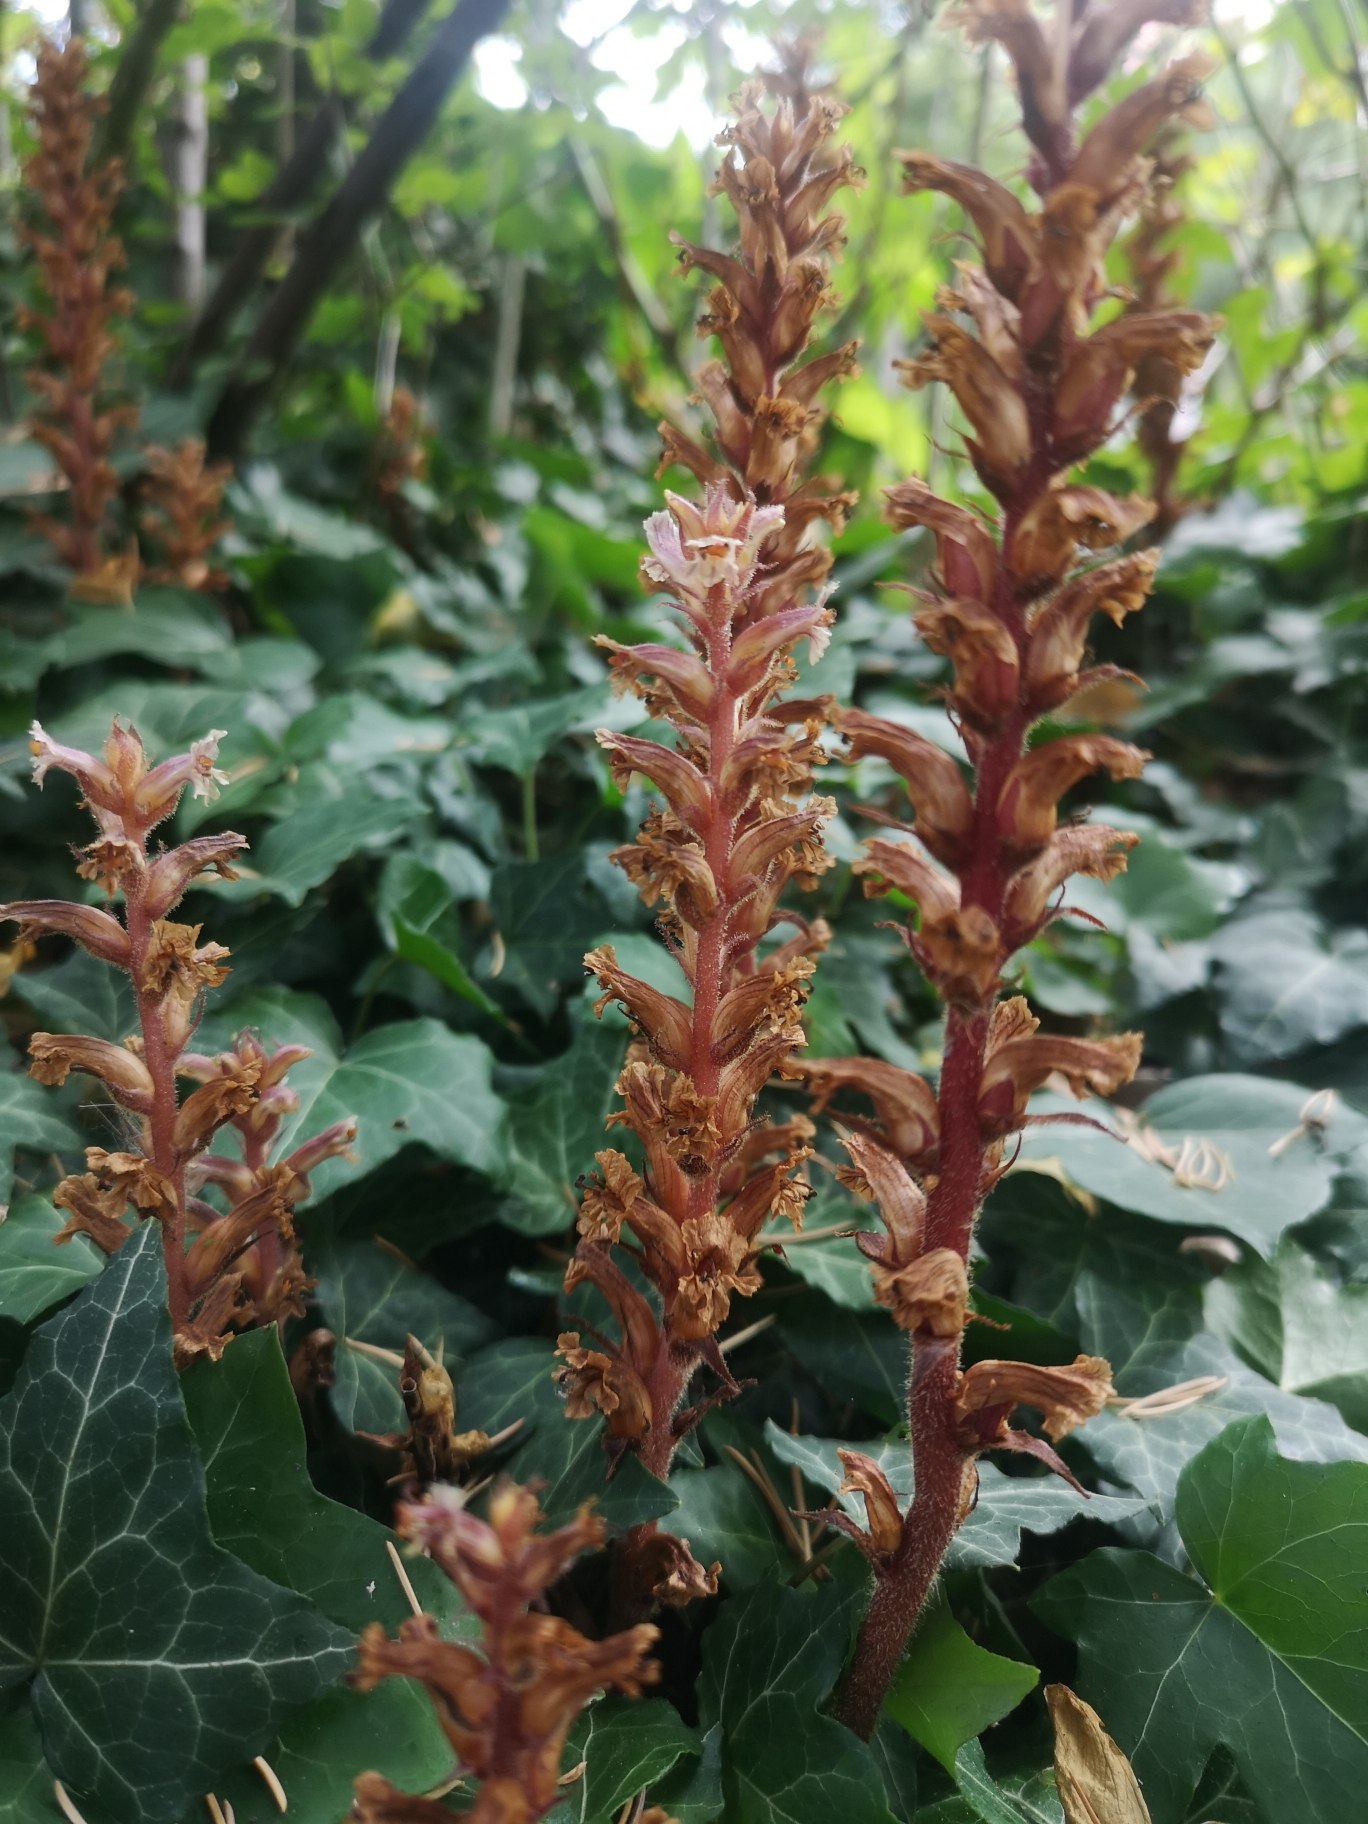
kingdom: Plantae
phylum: Tracheophyta
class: Magnoliopsida
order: Lamiales
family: Orobanchaceae
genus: Orobanche
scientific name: Orobanche hederae
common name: Vedbend-gyvelkvæler
